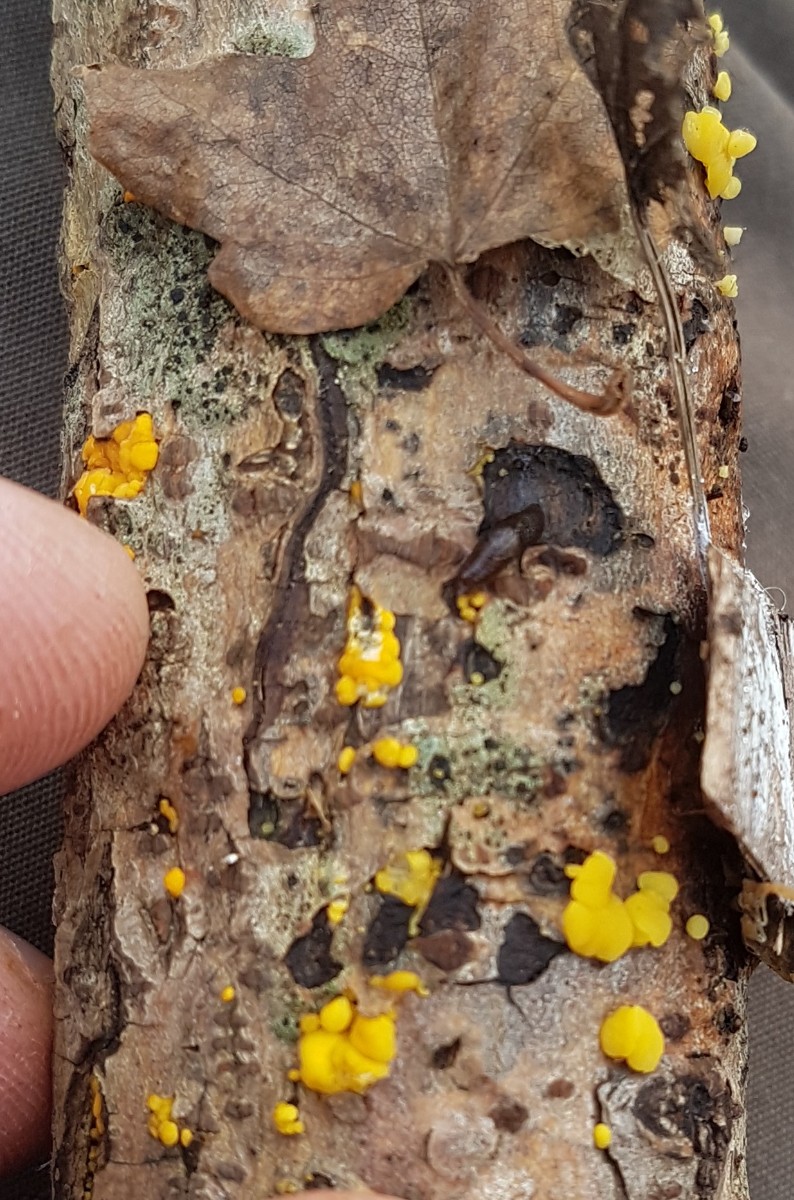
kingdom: Fungi
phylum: Ascomycota
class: Leotiomycetes
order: Helotiales
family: Pezizellaceae
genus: Calycina
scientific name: Calycina
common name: gulskive
